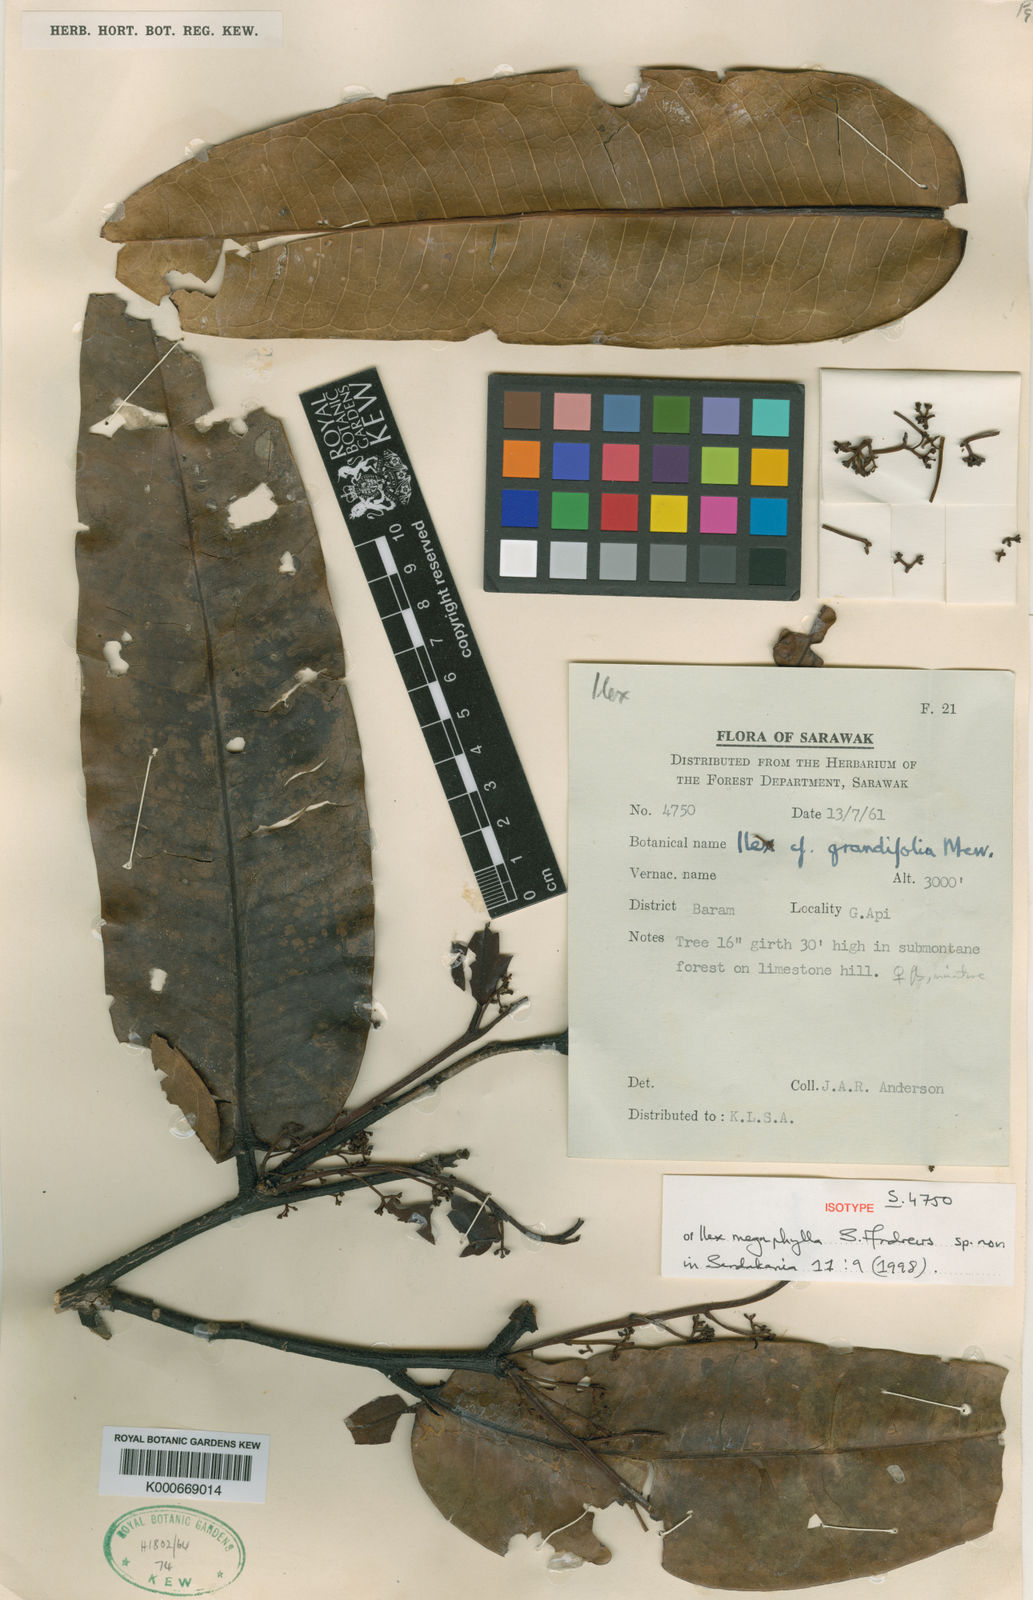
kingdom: Plantae
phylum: Tracheophyta
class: Magnoliopsida
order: Aquifoliales
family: Aquifoliaceae
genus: Ilex
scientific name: Ilex megaphylla
